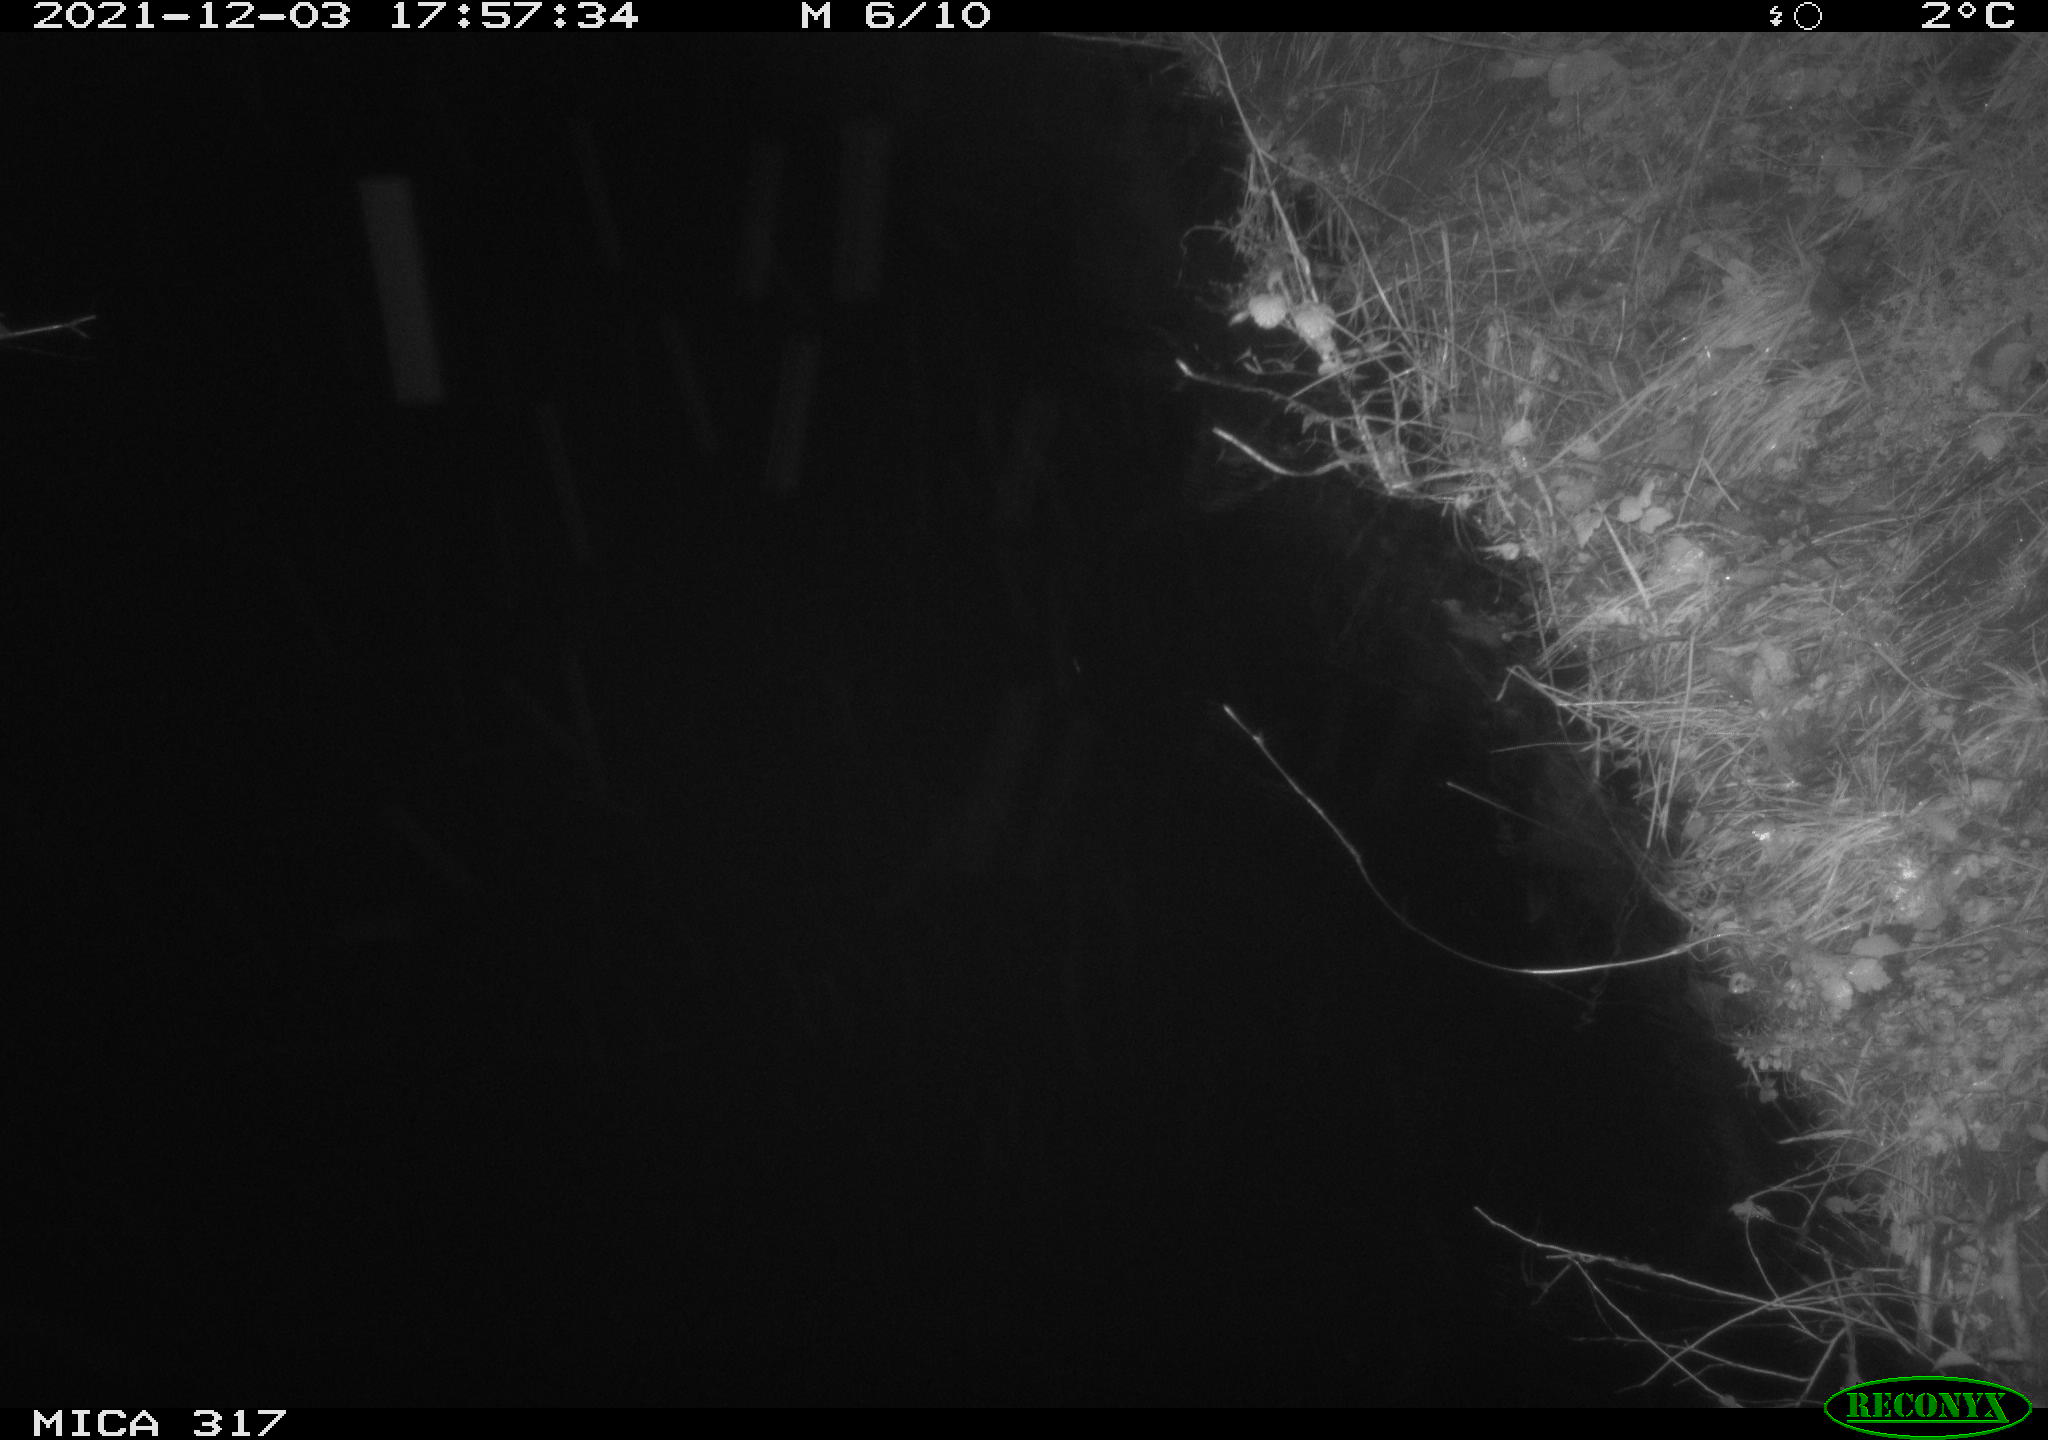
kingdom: Animalia
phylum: Chordata
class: Mammalia
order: Carnivora
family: Canidae
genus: Vulpes
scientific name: Vulpes vulpes
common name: Red fox
